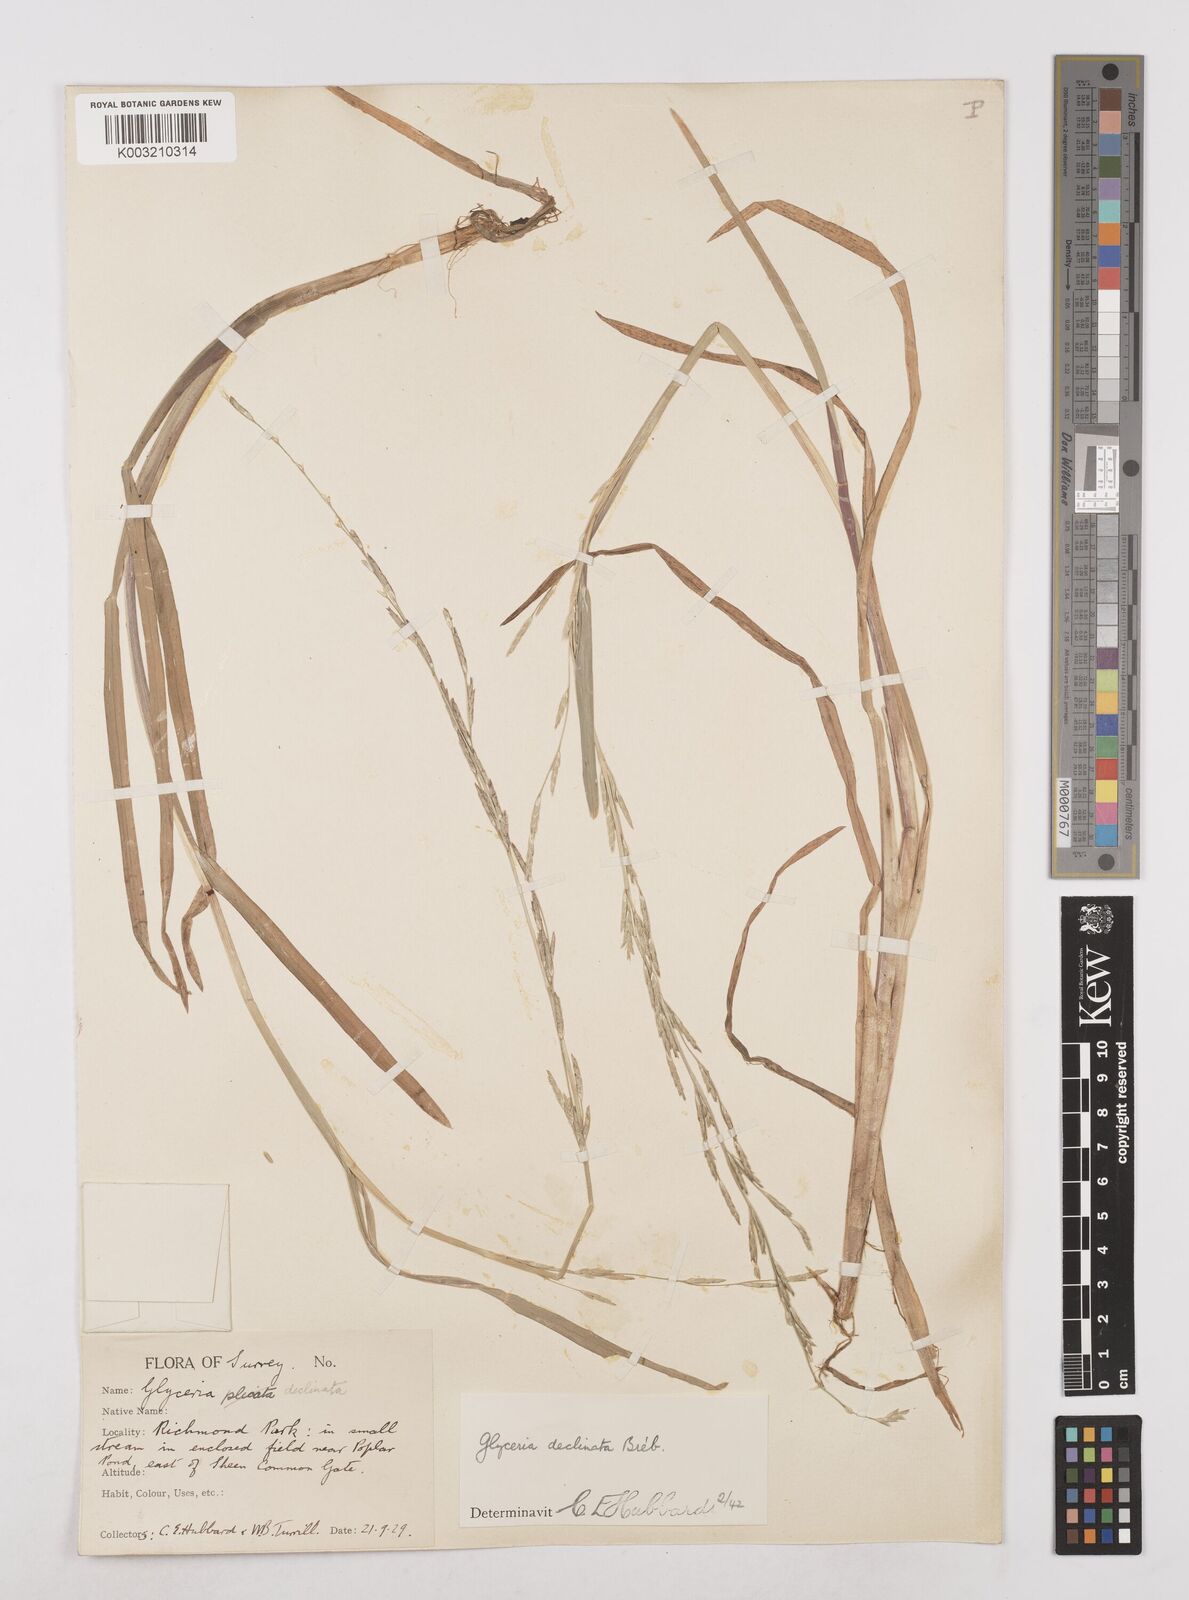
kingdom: Plantae
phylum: Tracheophyta
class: Liliopsida
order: Poales
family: Poaceae
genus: Glyceria
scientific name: Glyceria declinata
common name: Small sweet-grass
